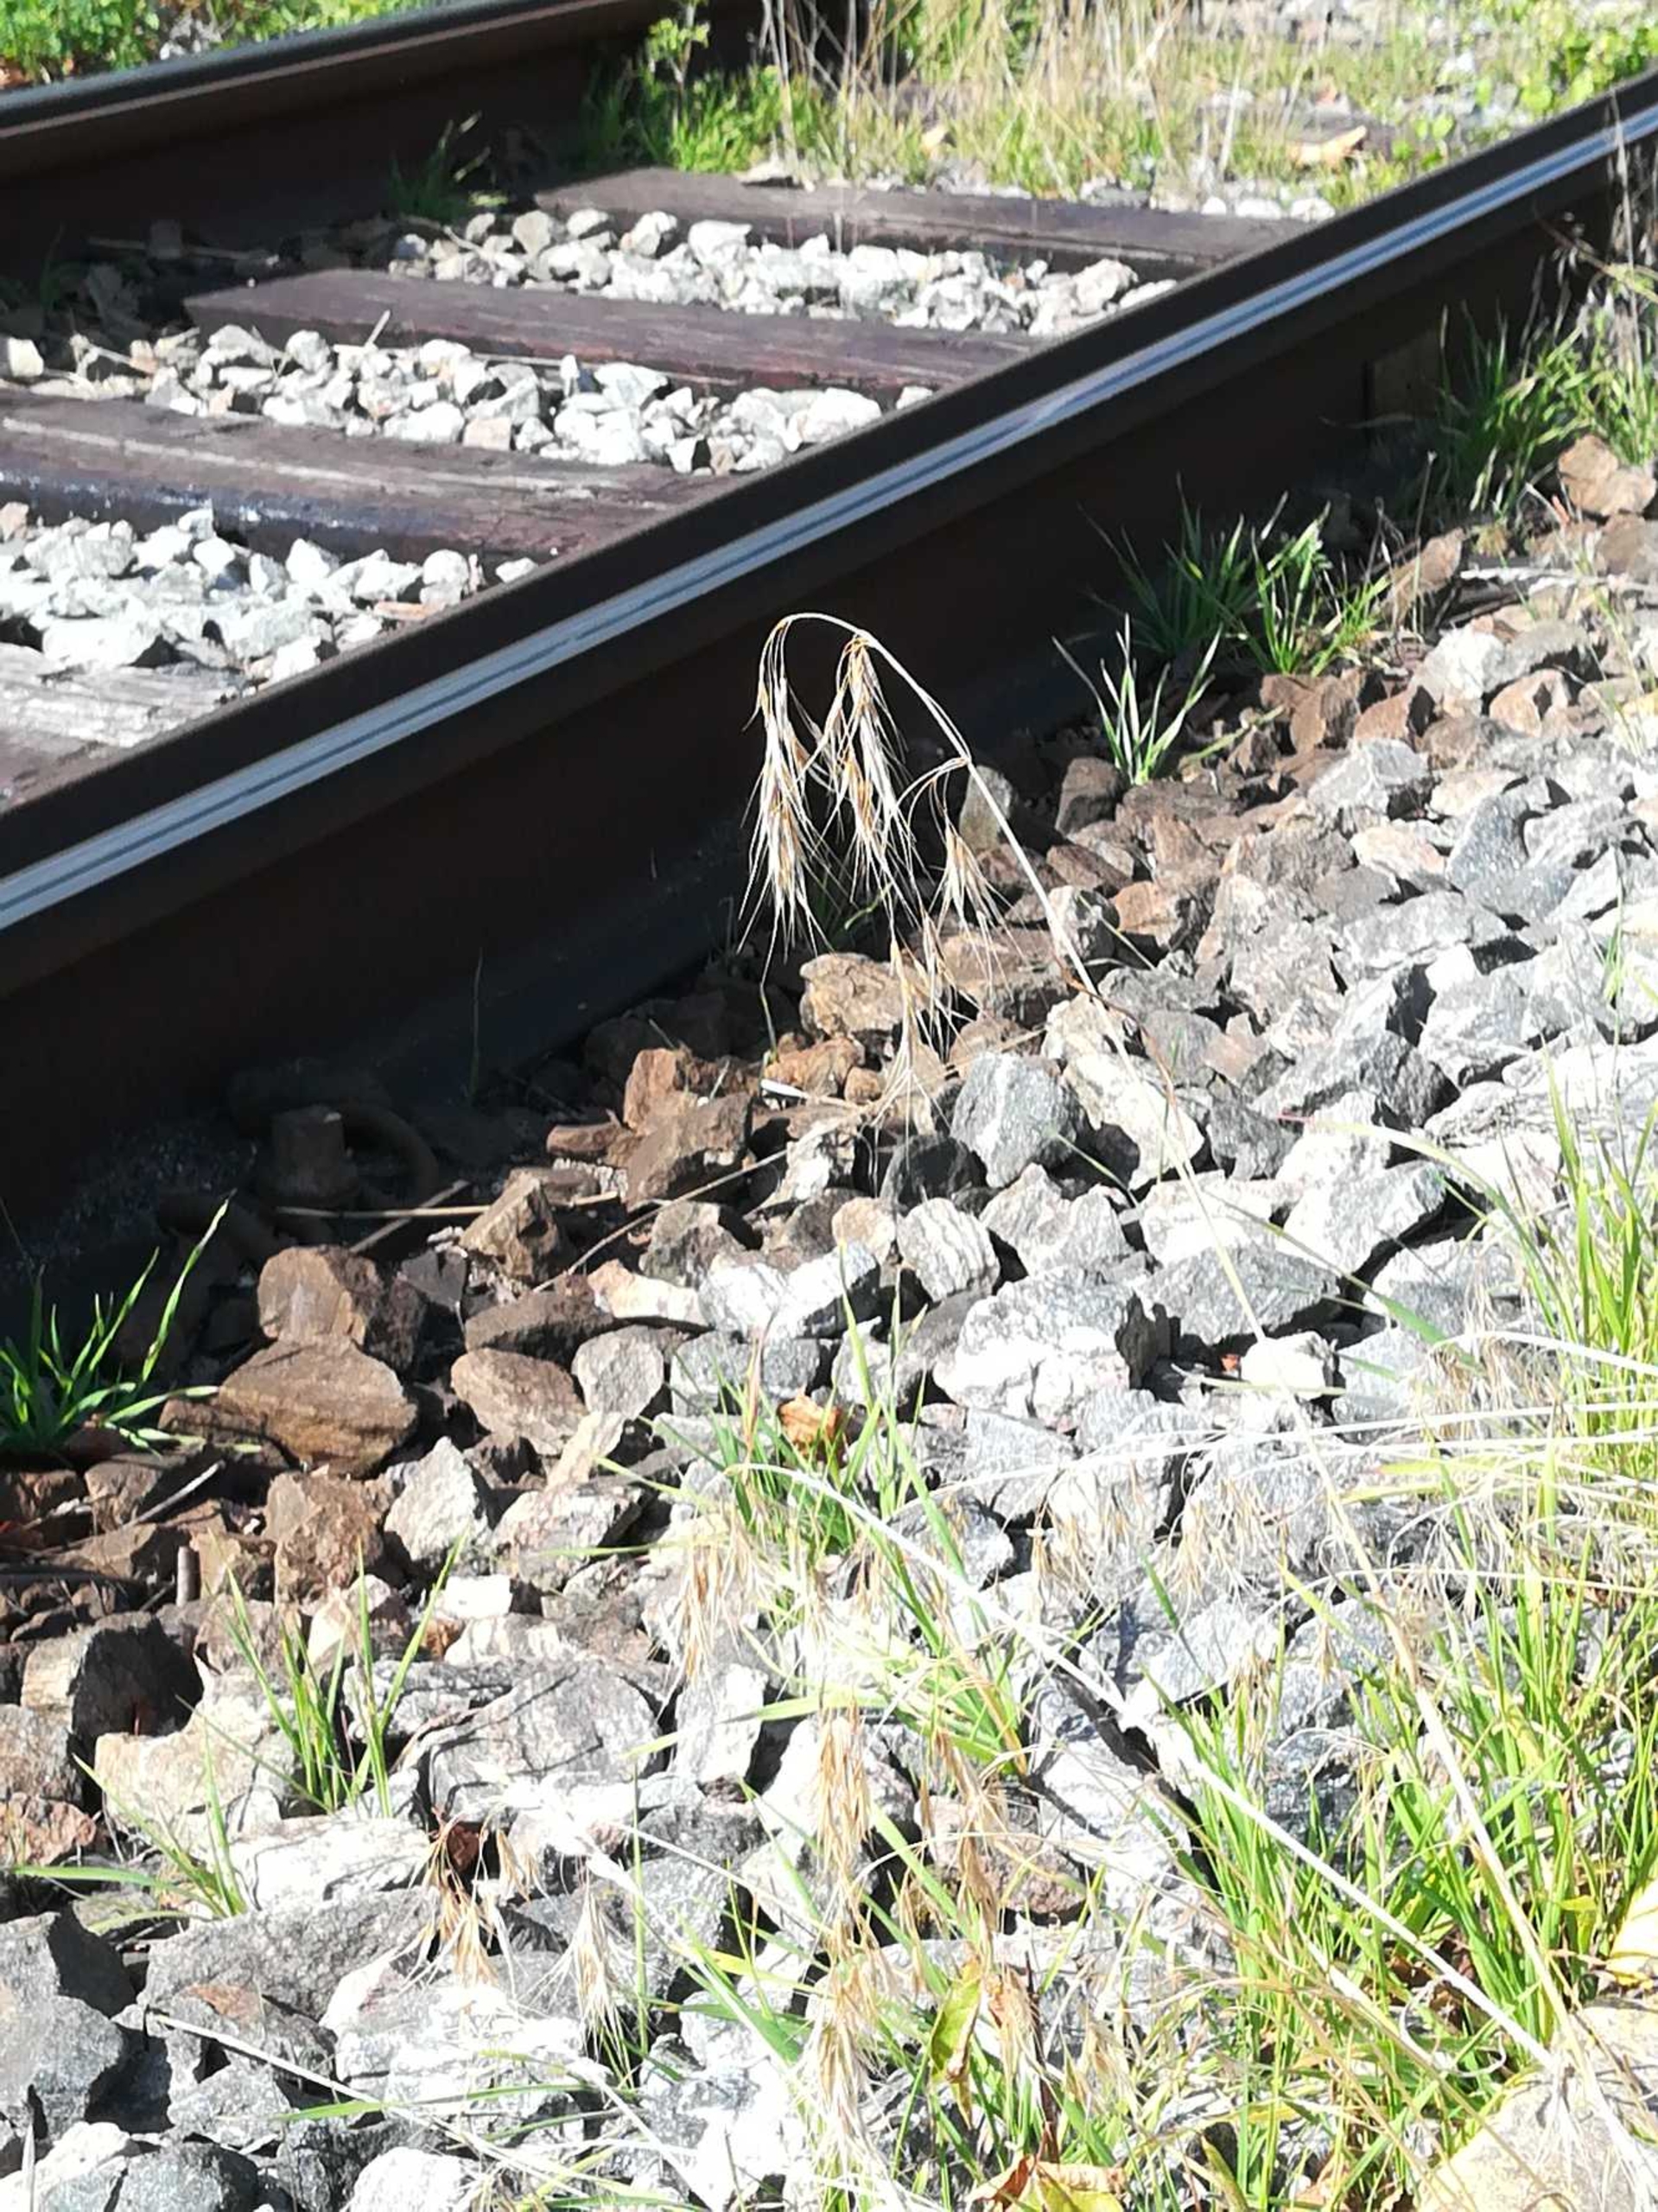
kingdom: Plantae
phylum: Tracheophyta
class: Liliopsida
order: Poales
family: Poaceae
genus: Bromus
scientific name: Bromus tectorum
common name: Tag-hejre
